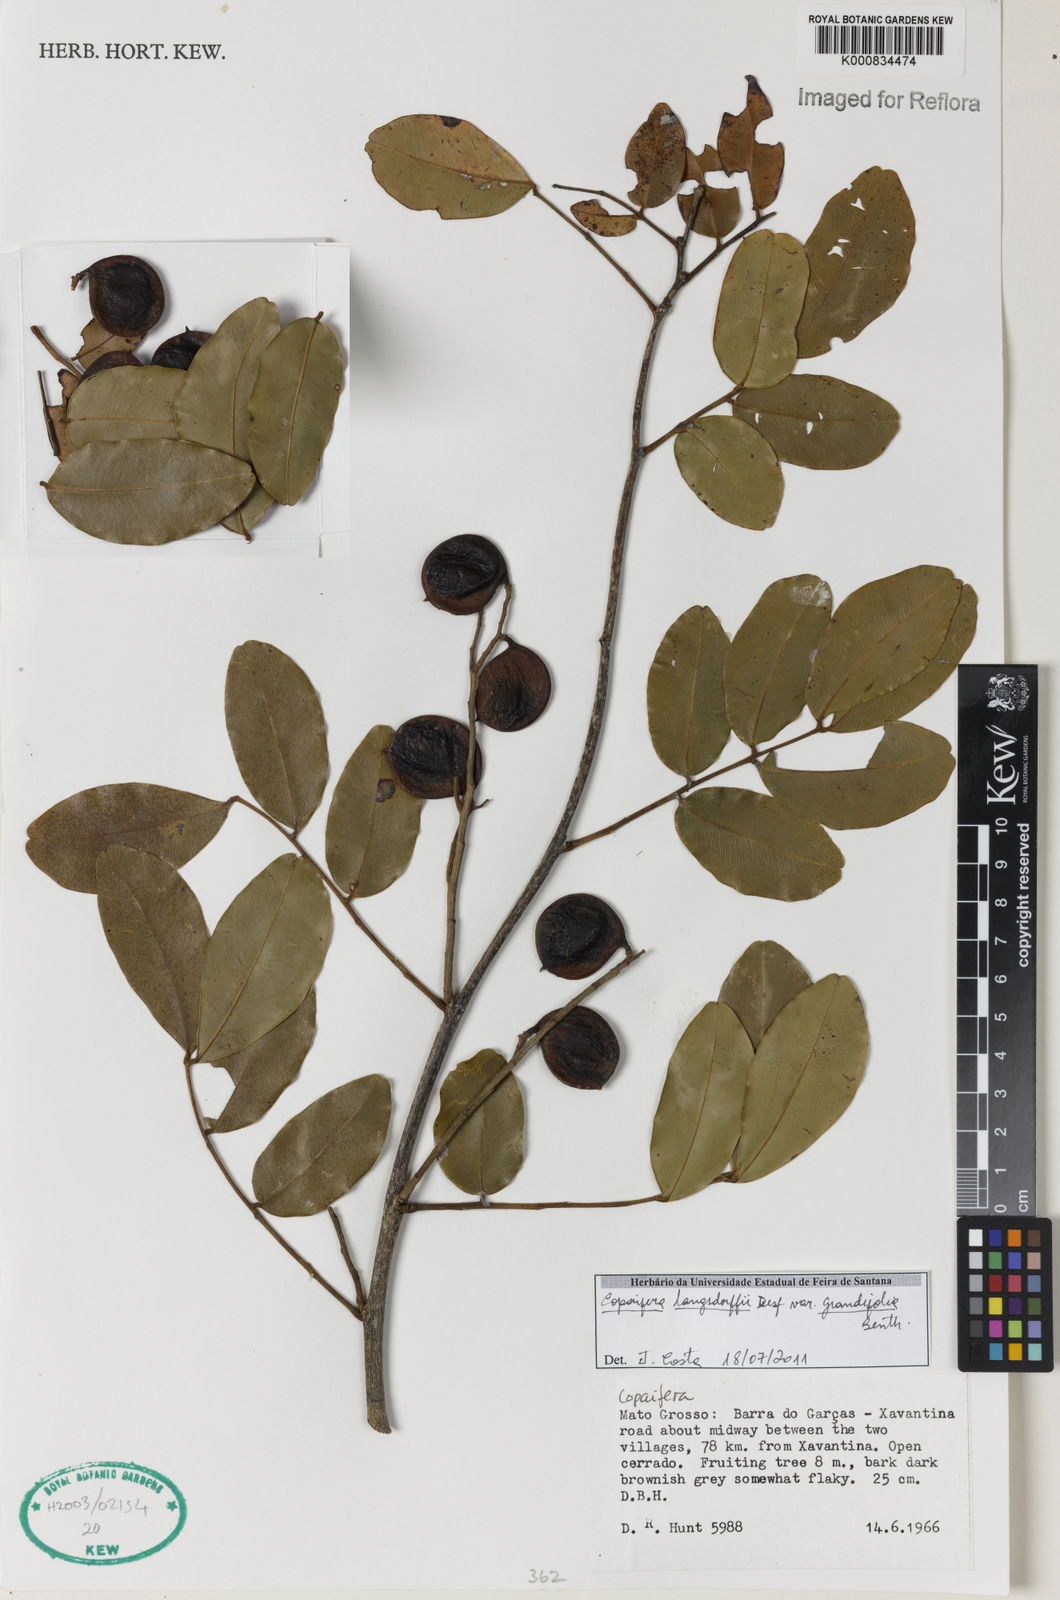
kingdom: Plantae
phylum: Tracheophyta
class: Magnoliopsida
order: Fabales
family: Fabaceae
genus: Copaifera
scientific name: Copaifera langsdorffii
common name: Brazilian diesel tree
